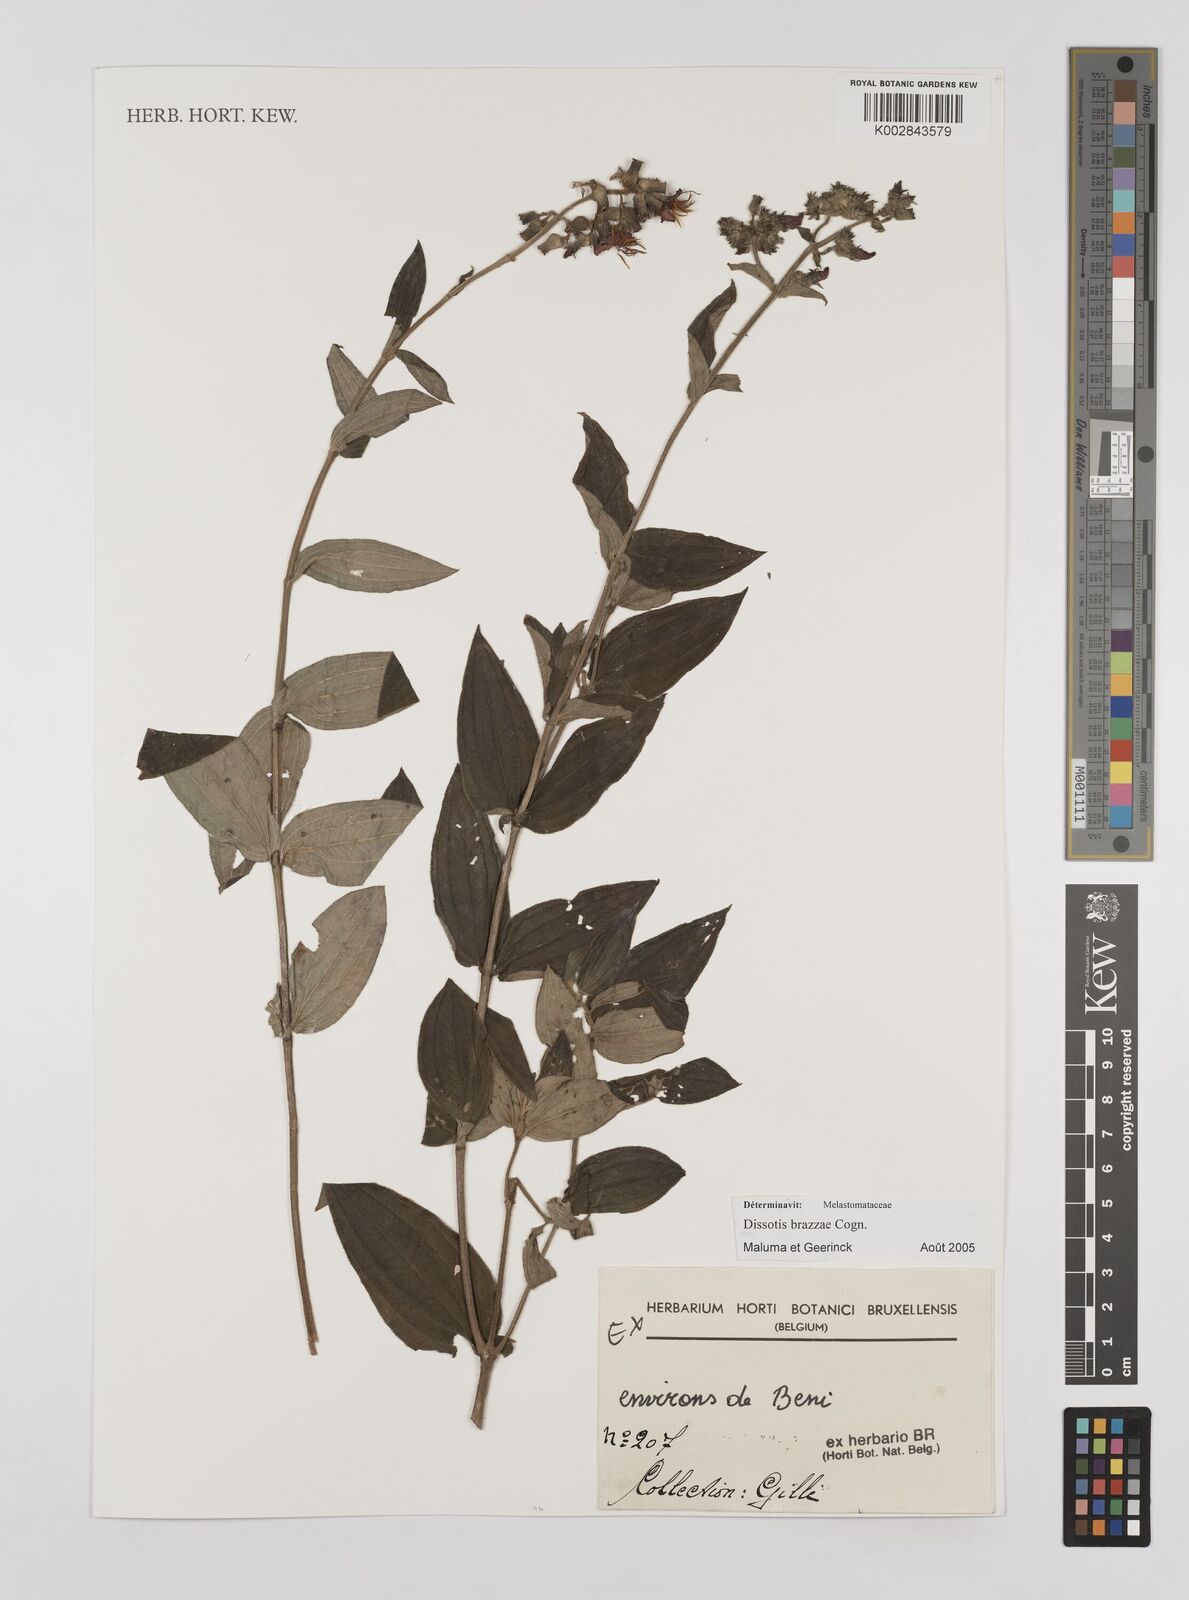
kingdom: Plantae
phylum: Tracheophyta
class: Magnoliopsida
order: Myrtales
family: Melastomataceae
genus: Dupineta
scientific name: Dupineta brazzae
